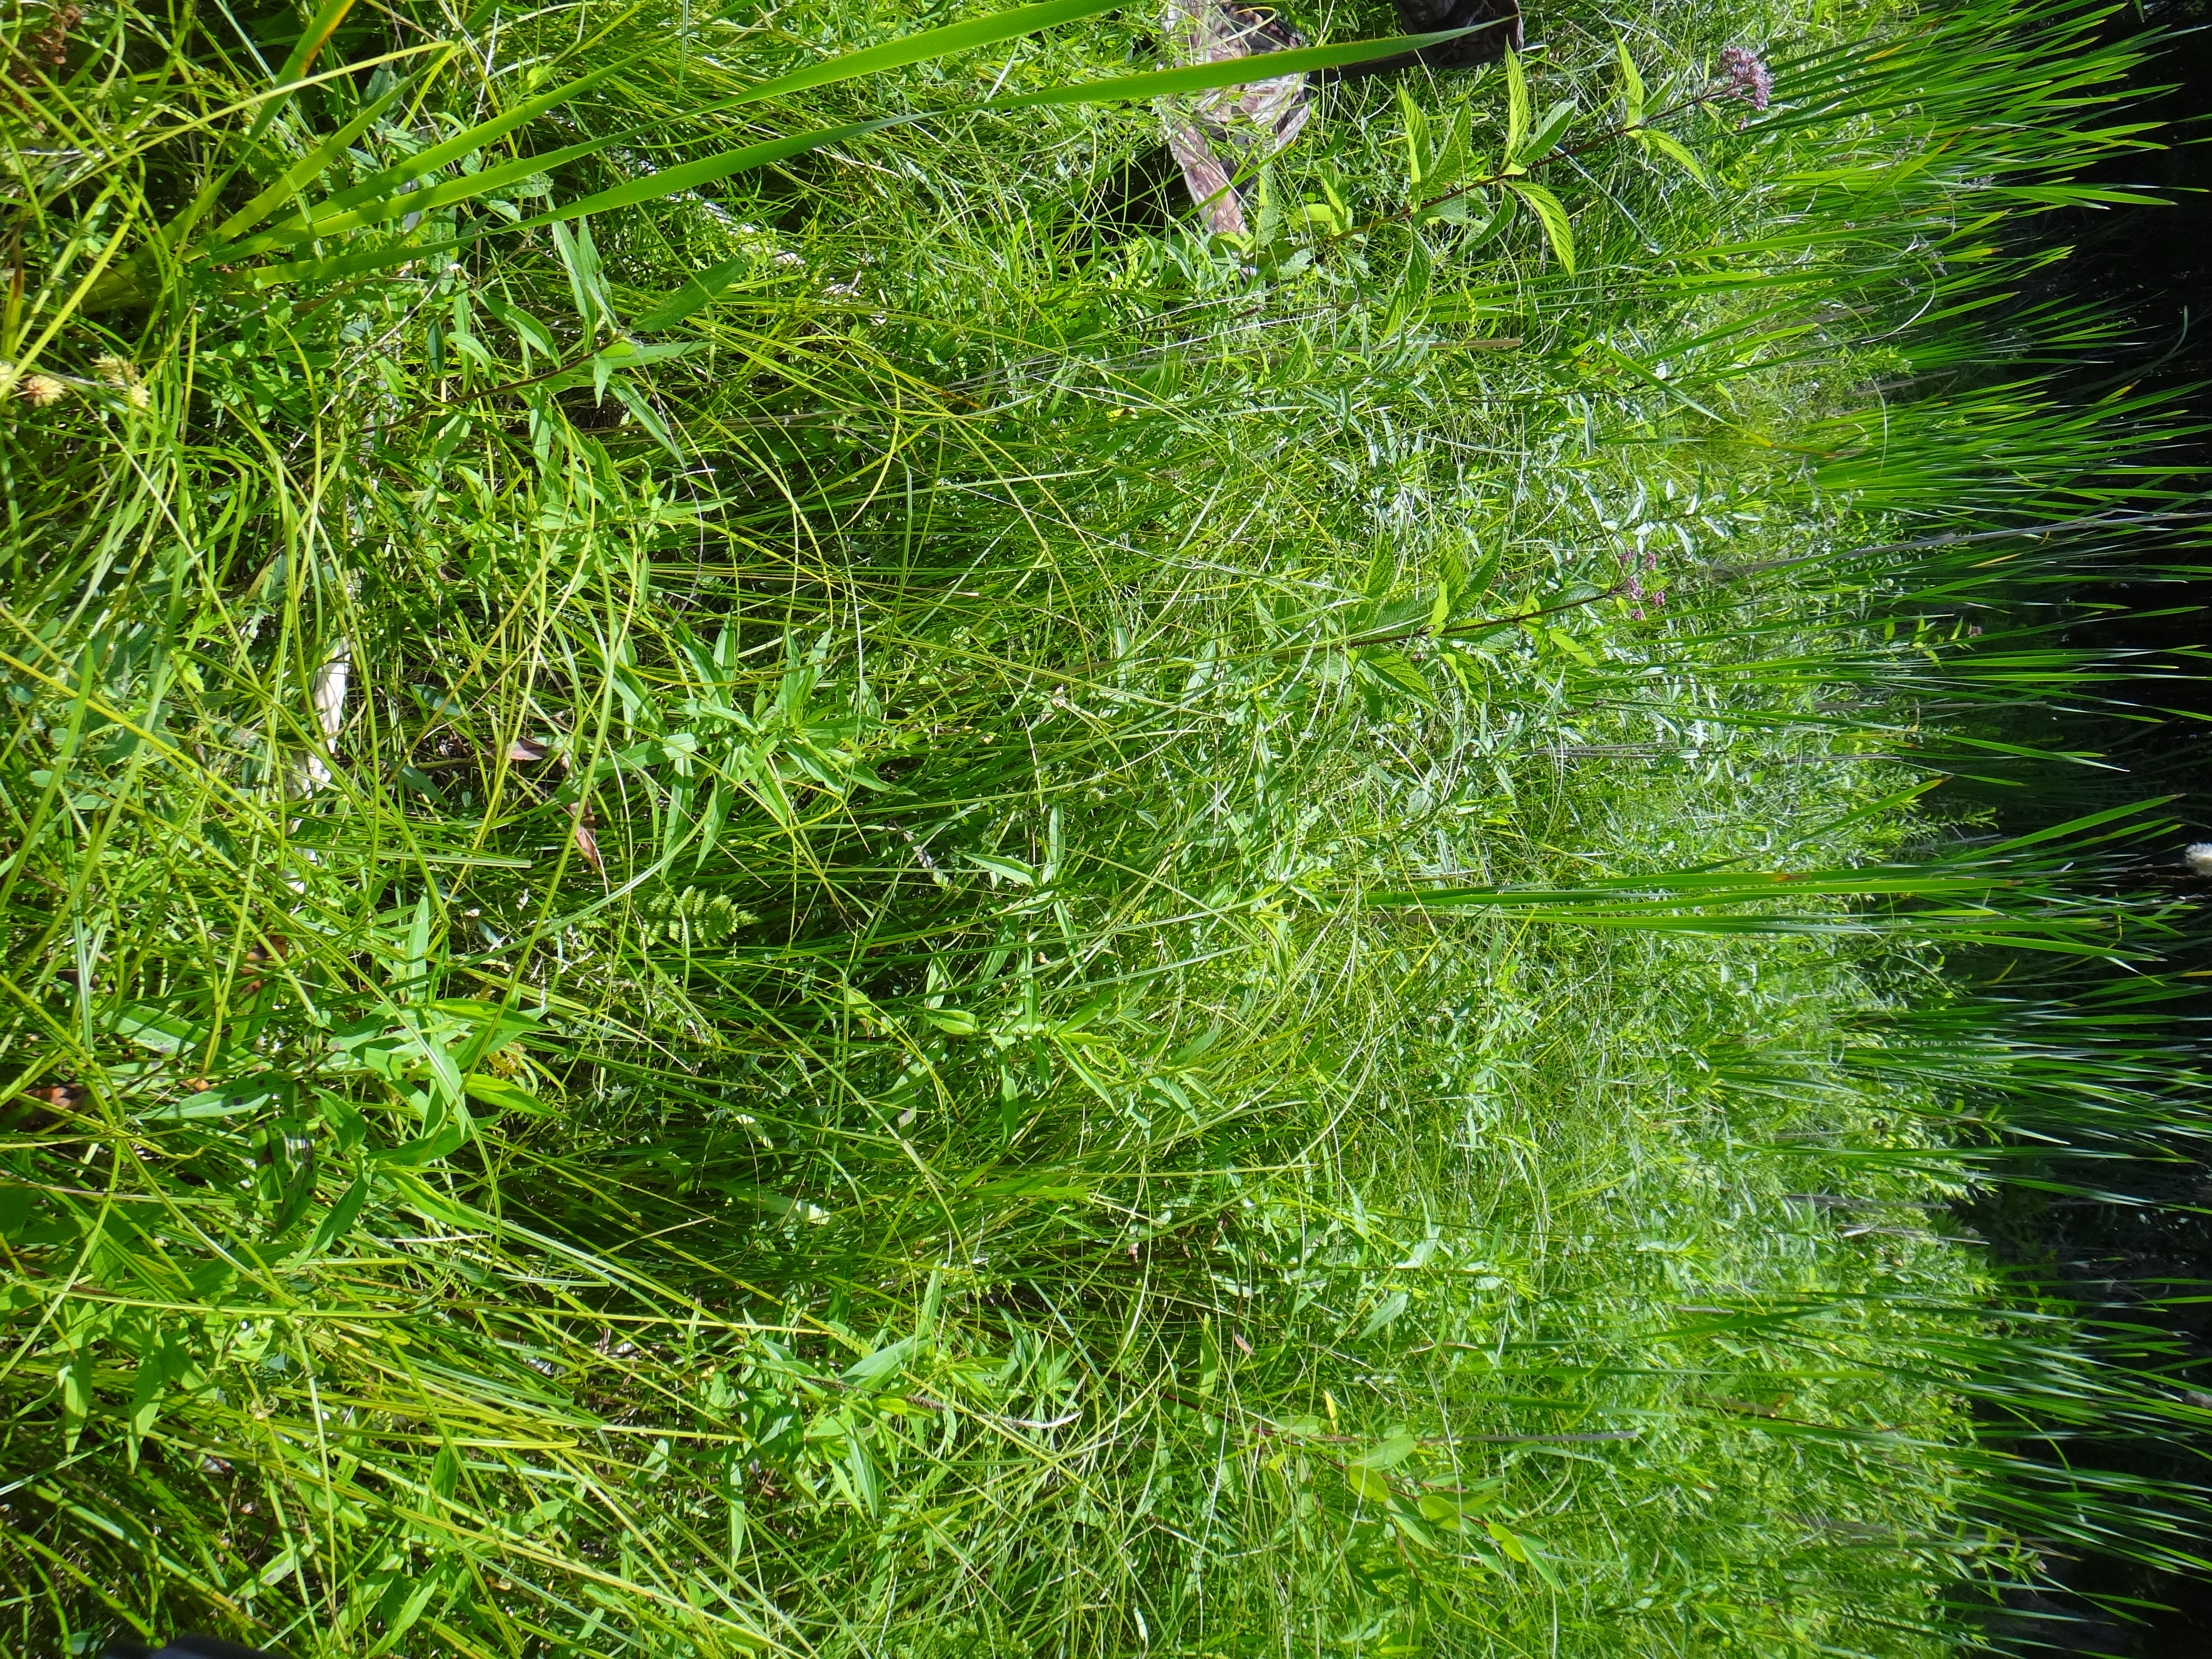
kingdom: Plantae
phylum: Tracheophyta
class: Liliopsida
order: Poales
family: Cyperaceae
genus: Eleocharis
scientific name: Eleocharis erythropoda
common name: Bald spikerush
